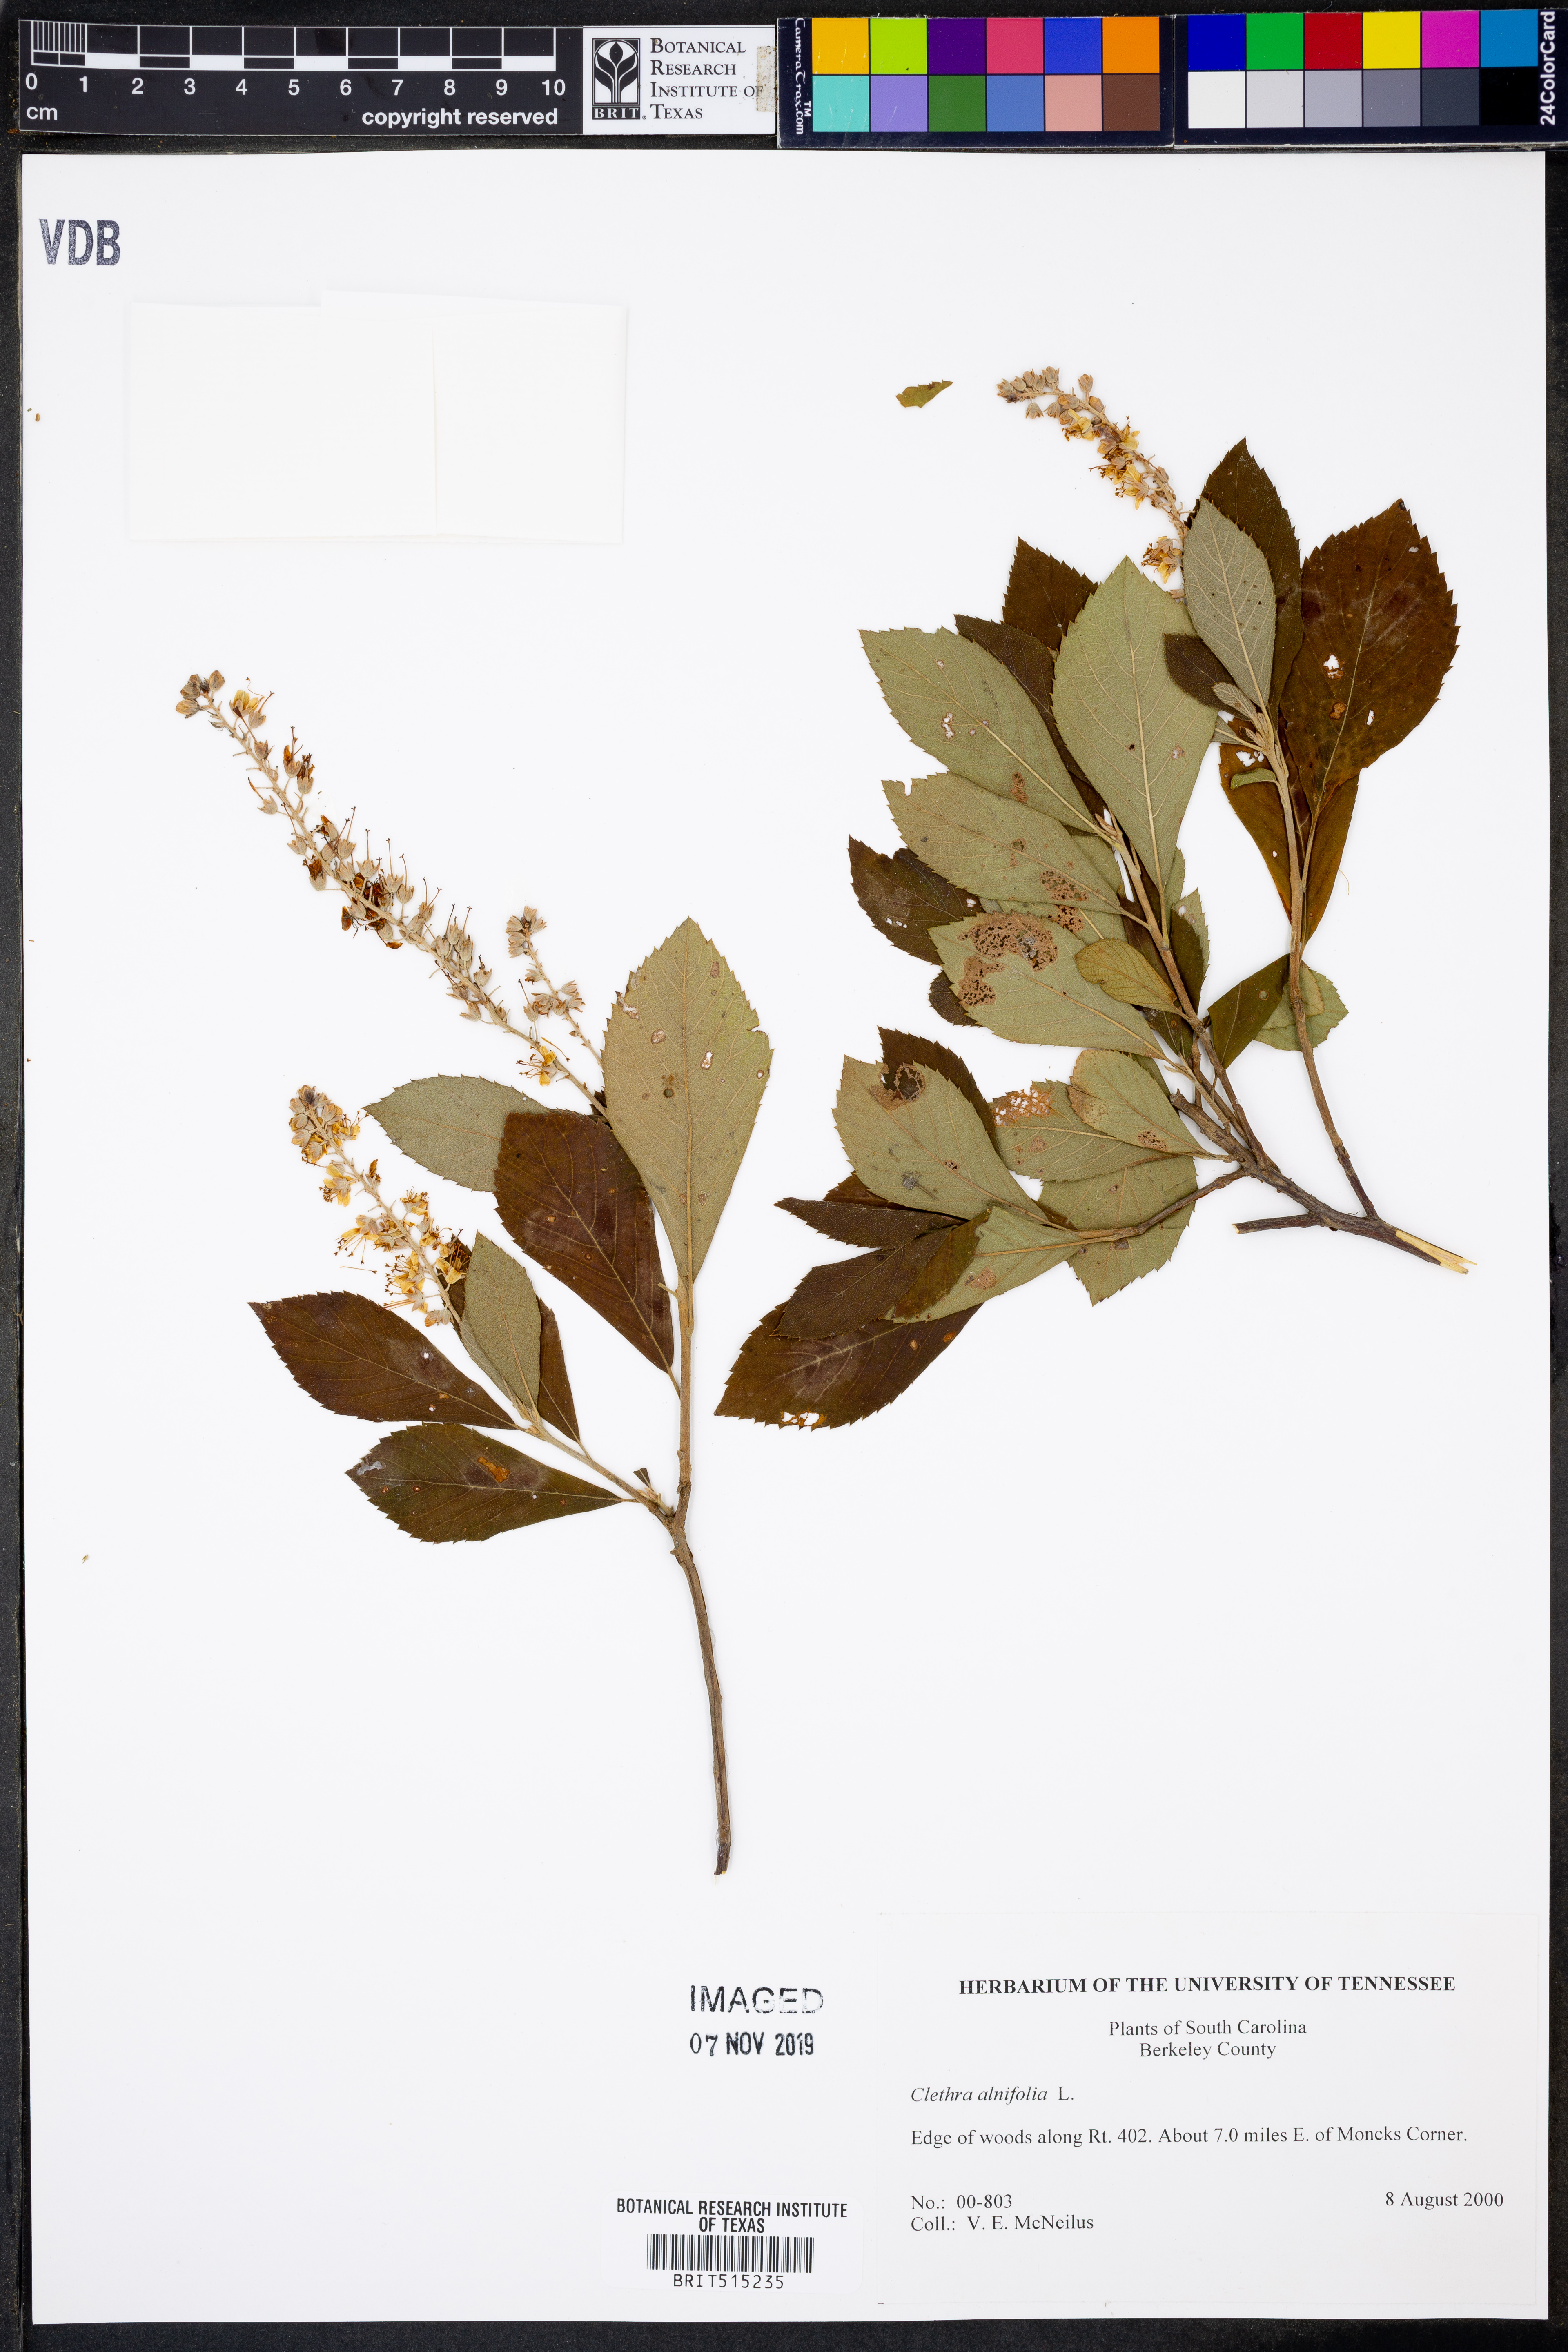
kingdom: Plantae
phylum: Tracheophyta
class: Magnoliopsida
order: Ericales
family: Clethraceae
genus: Clethra
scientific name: Clethra alnifolia
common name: Sweet pepperbush
